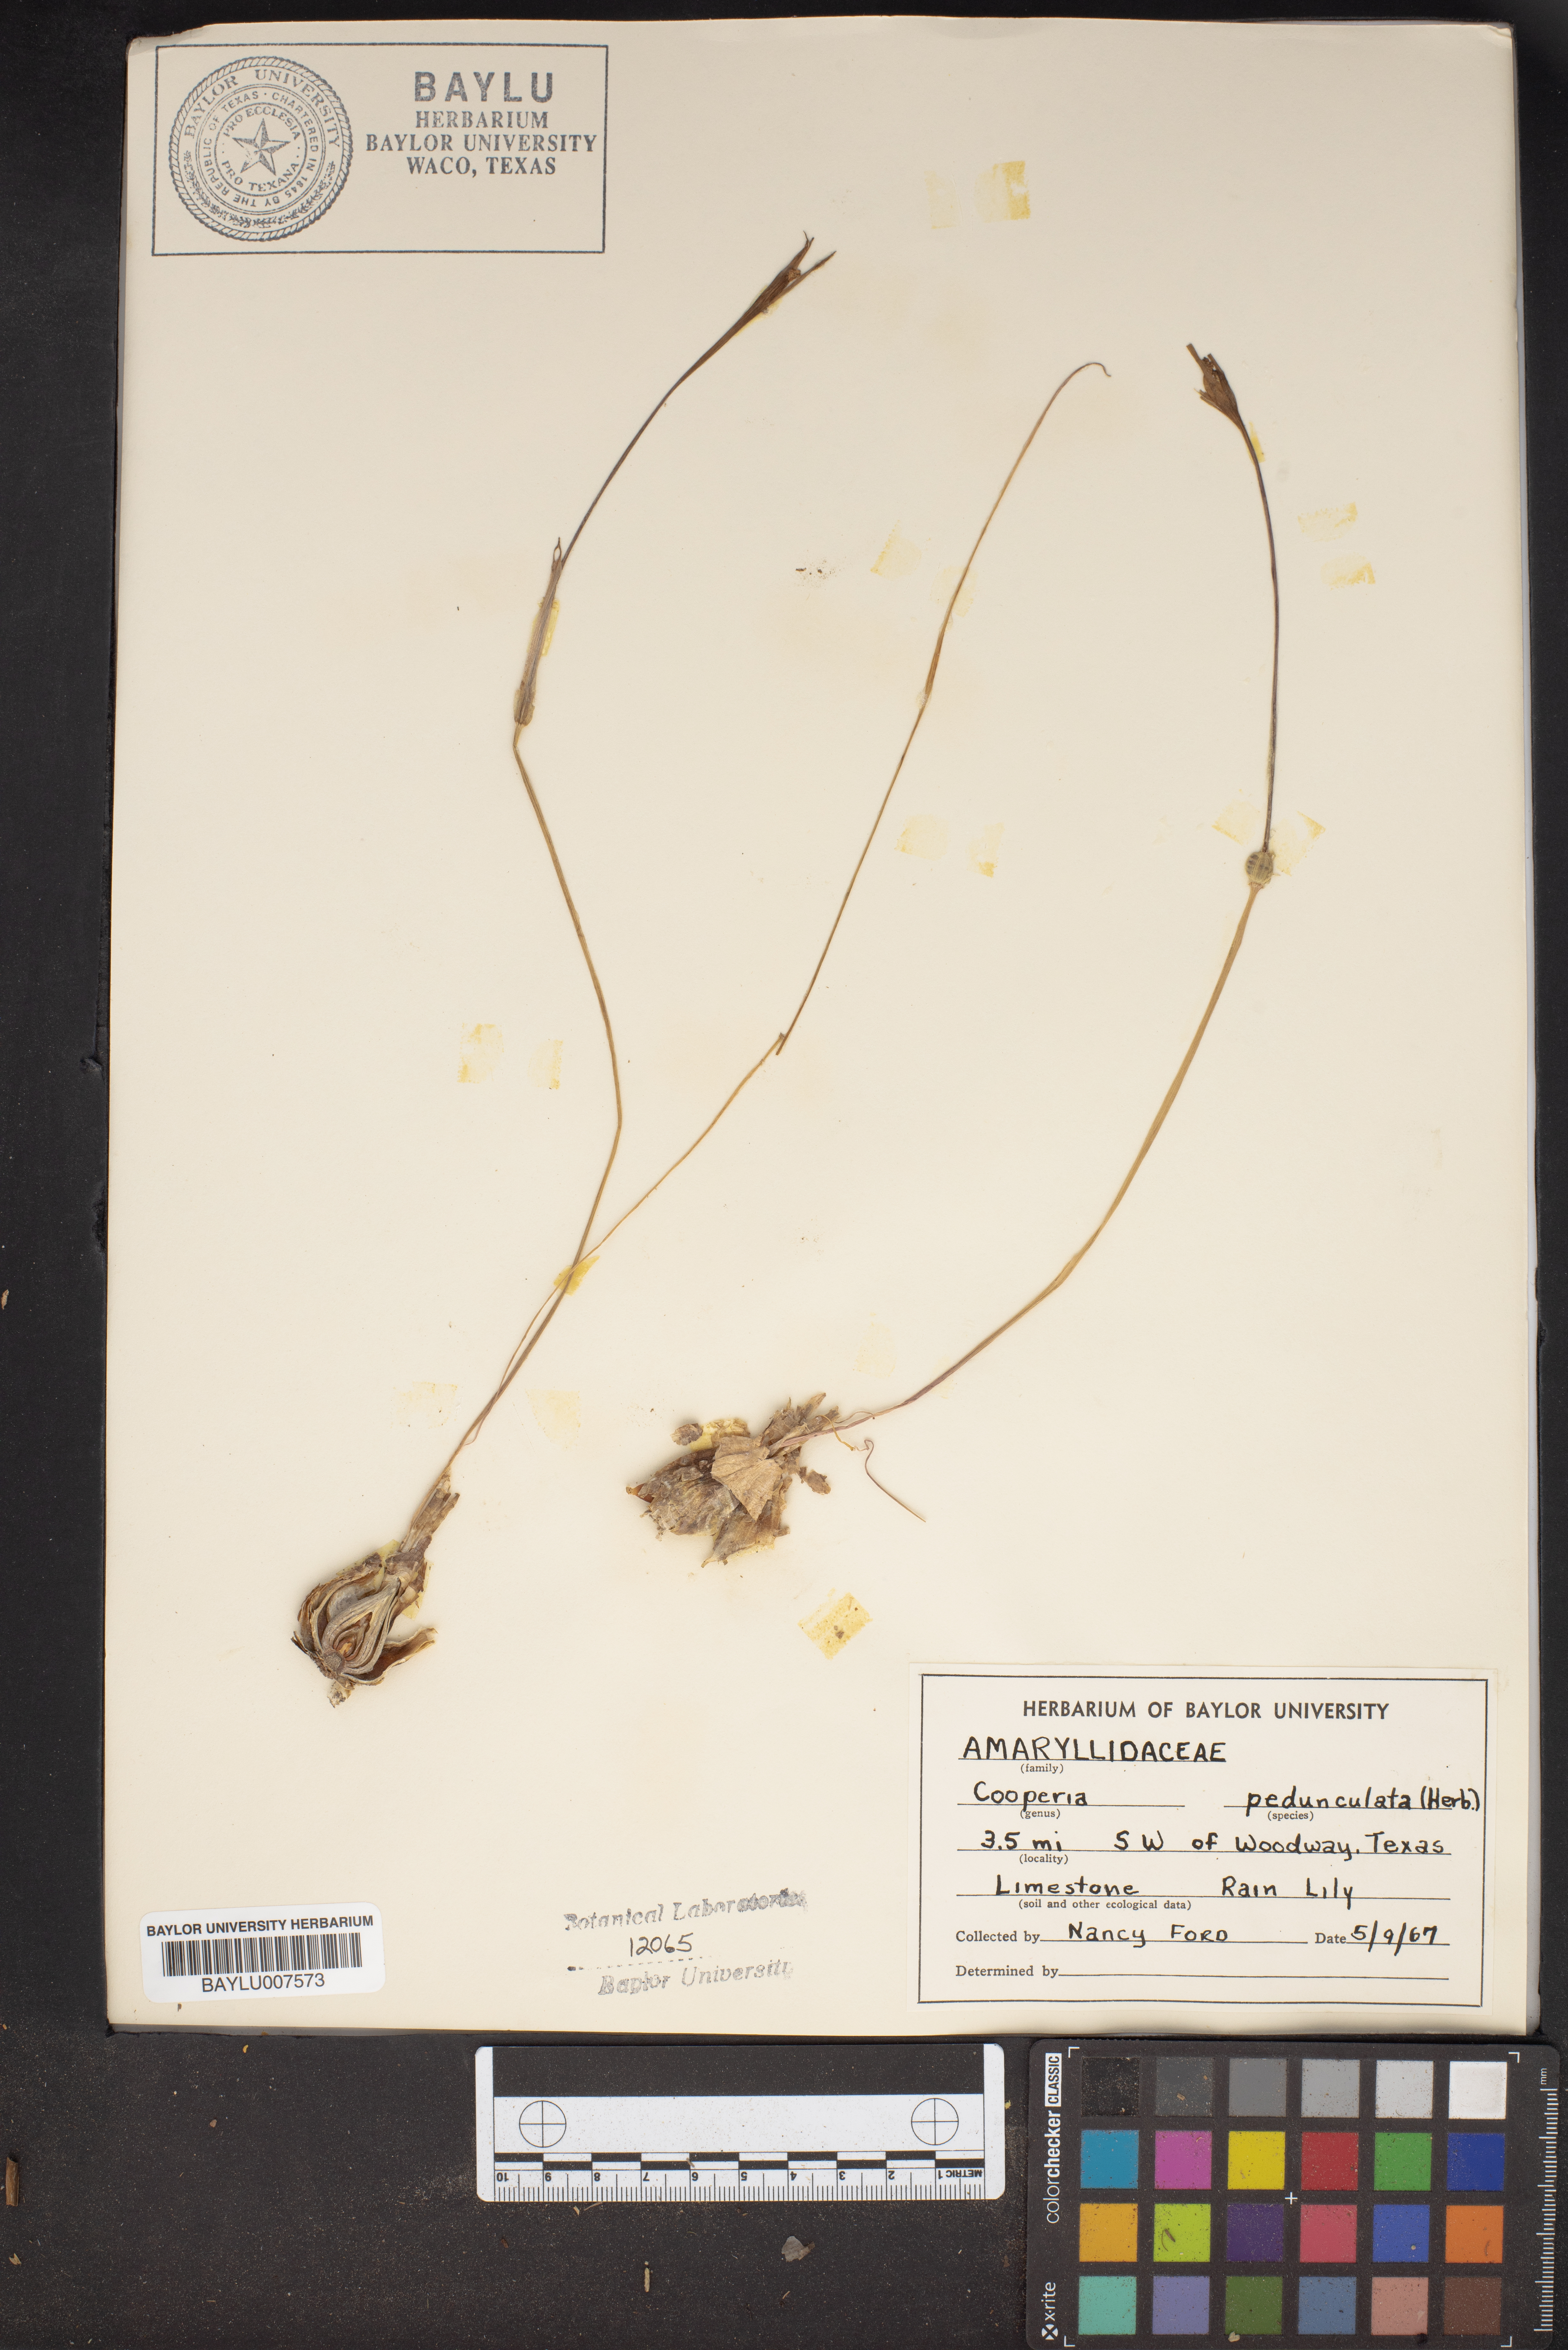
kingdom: Plantae
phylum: Tracheophyta
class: Liliopsida
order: Asparagales
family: Amaryllidaceae
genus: Zephyranthes
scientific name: Zephyranthes drummondii
